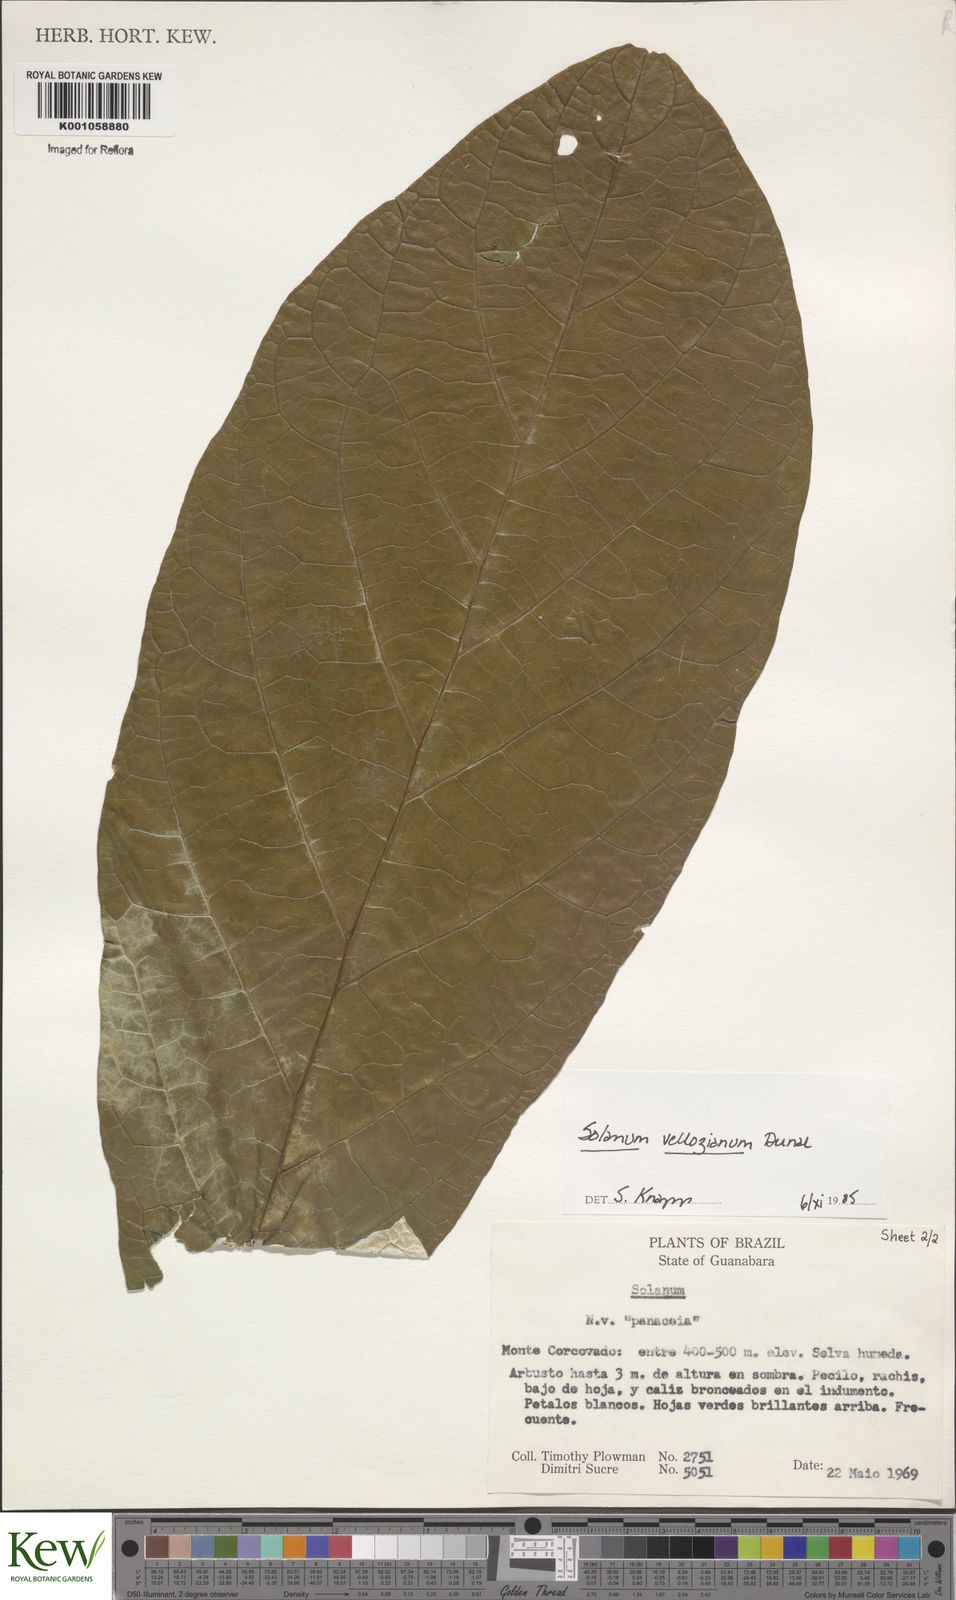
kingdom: Plantae
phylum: Tracheophyta
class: Magnoliopsida
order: Solanales
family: Solanaceae
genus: Solanum
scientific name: Solanum vellozianum
